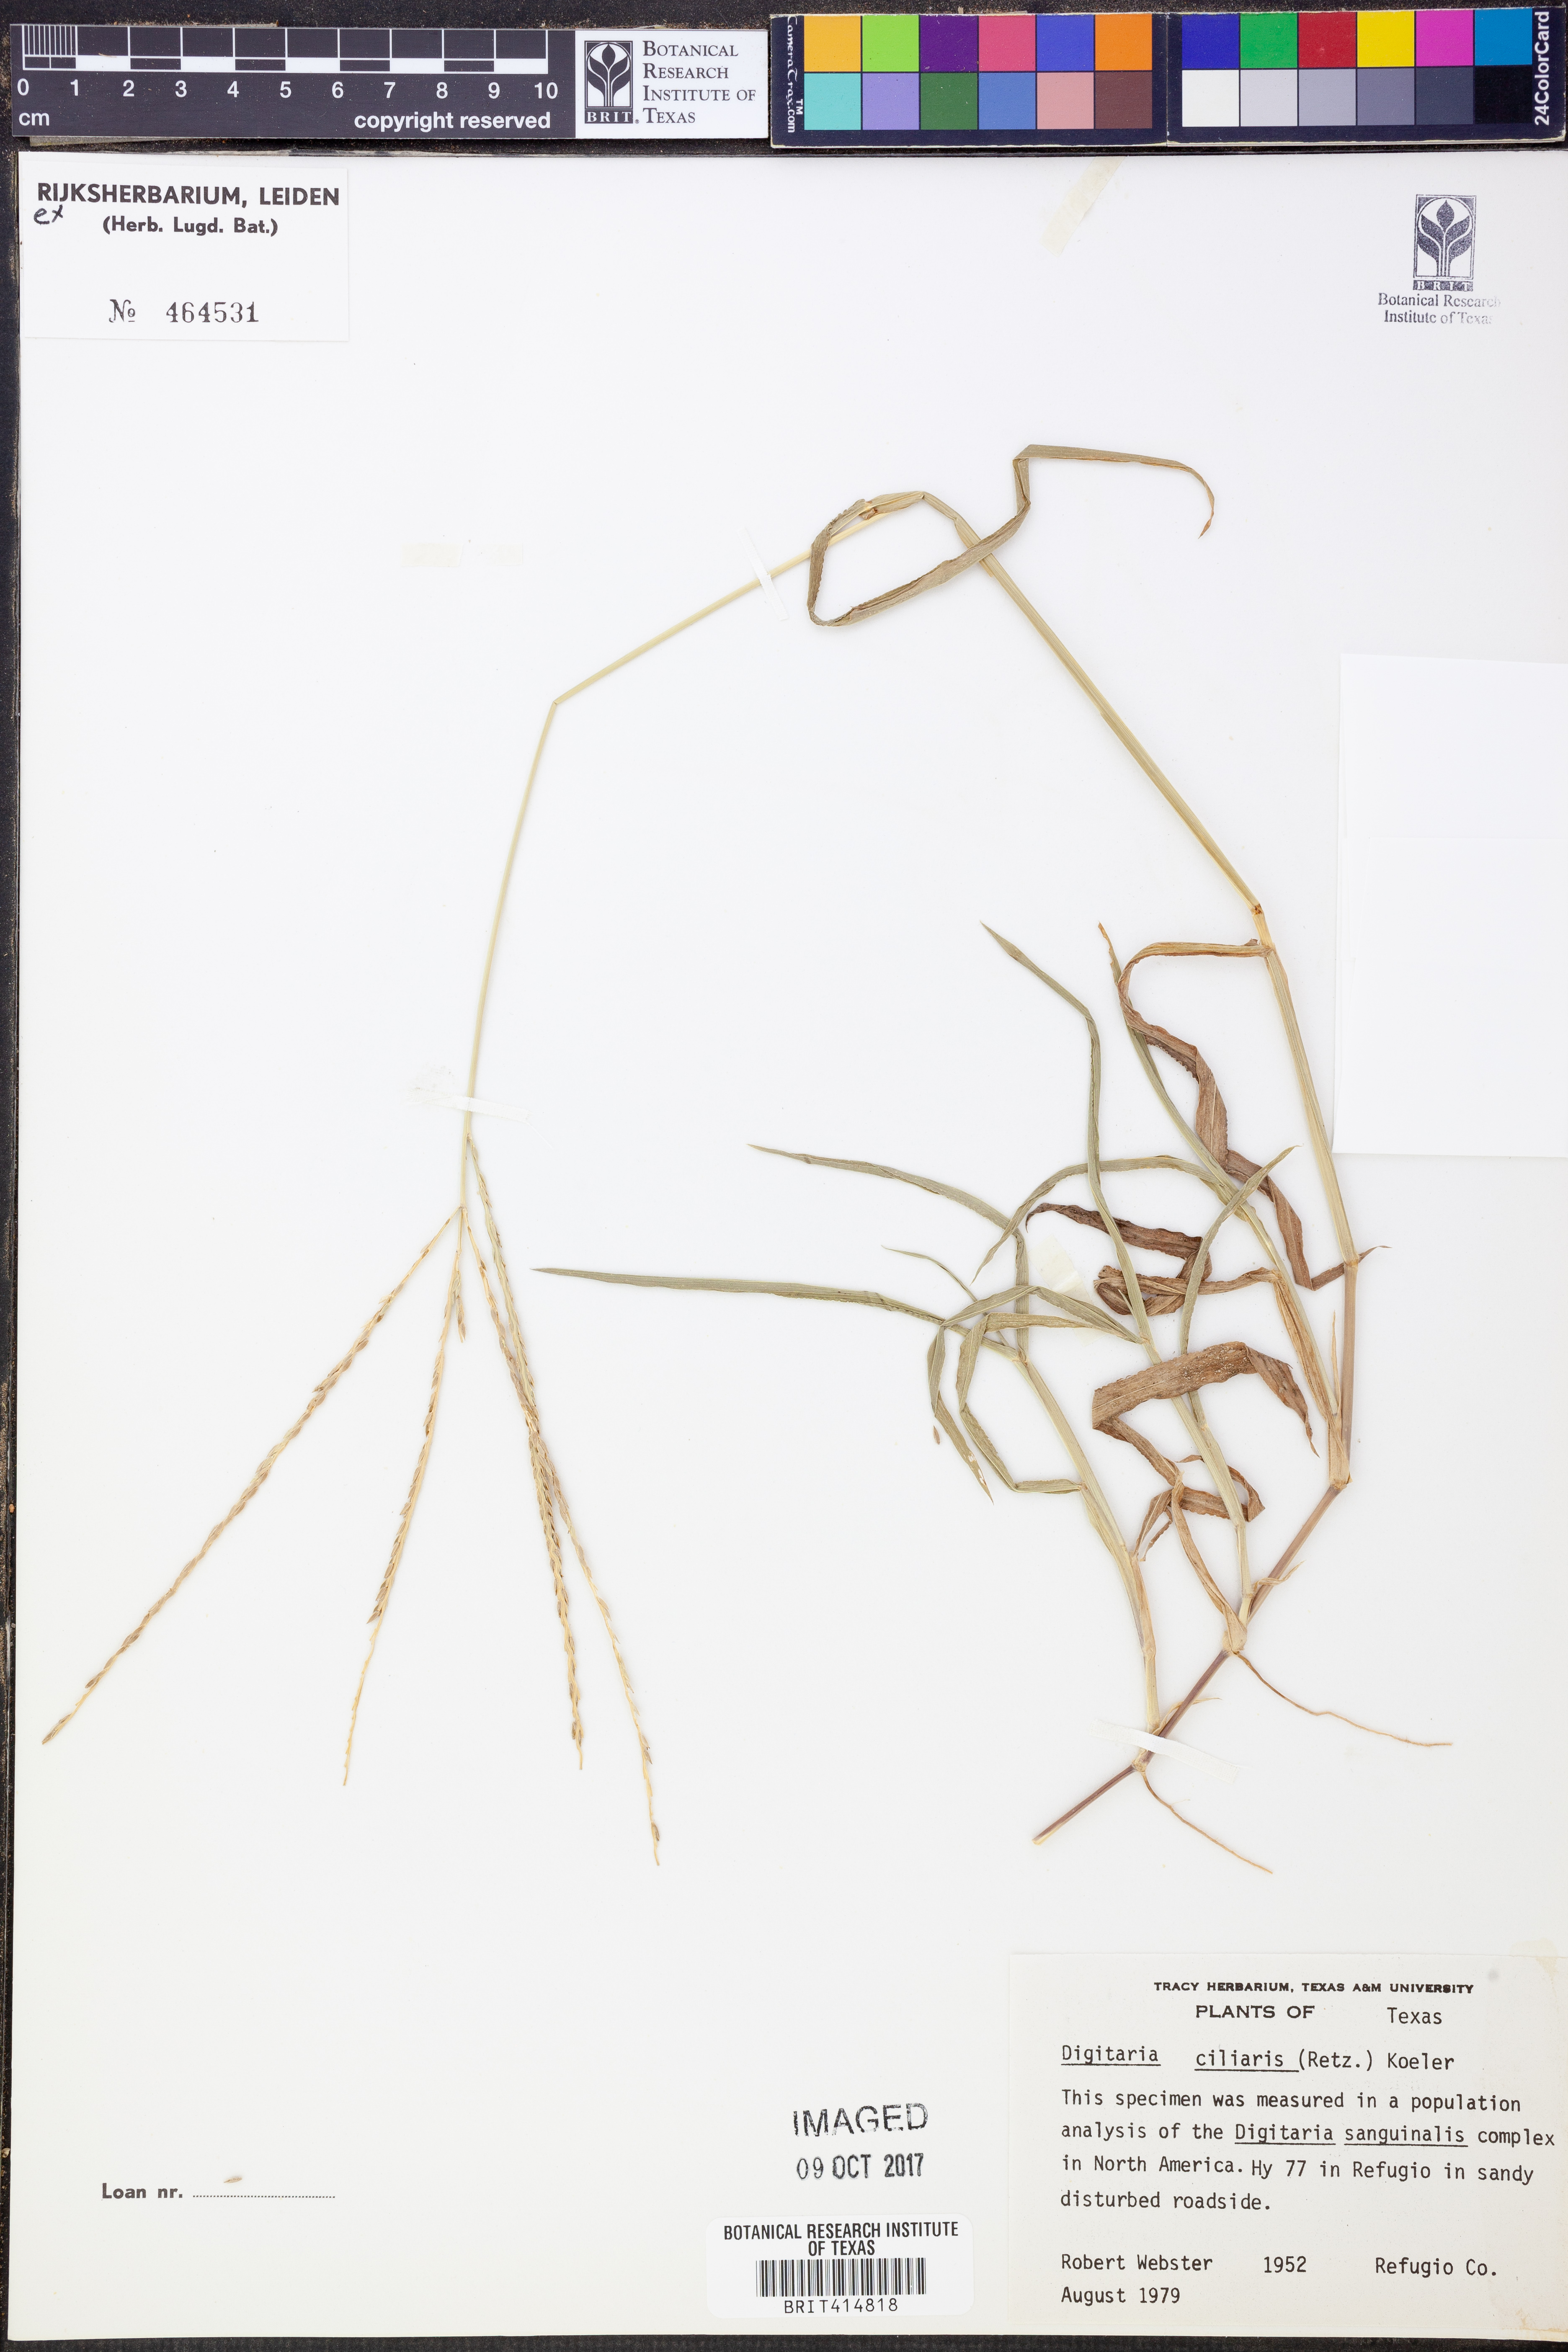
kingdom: Plantae
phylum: Tracheophyta
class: Liliopsida
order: Poales
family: Poaceae
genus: Digitaria
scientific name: Digitaria ciliaris
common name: Tropical finger-grass
